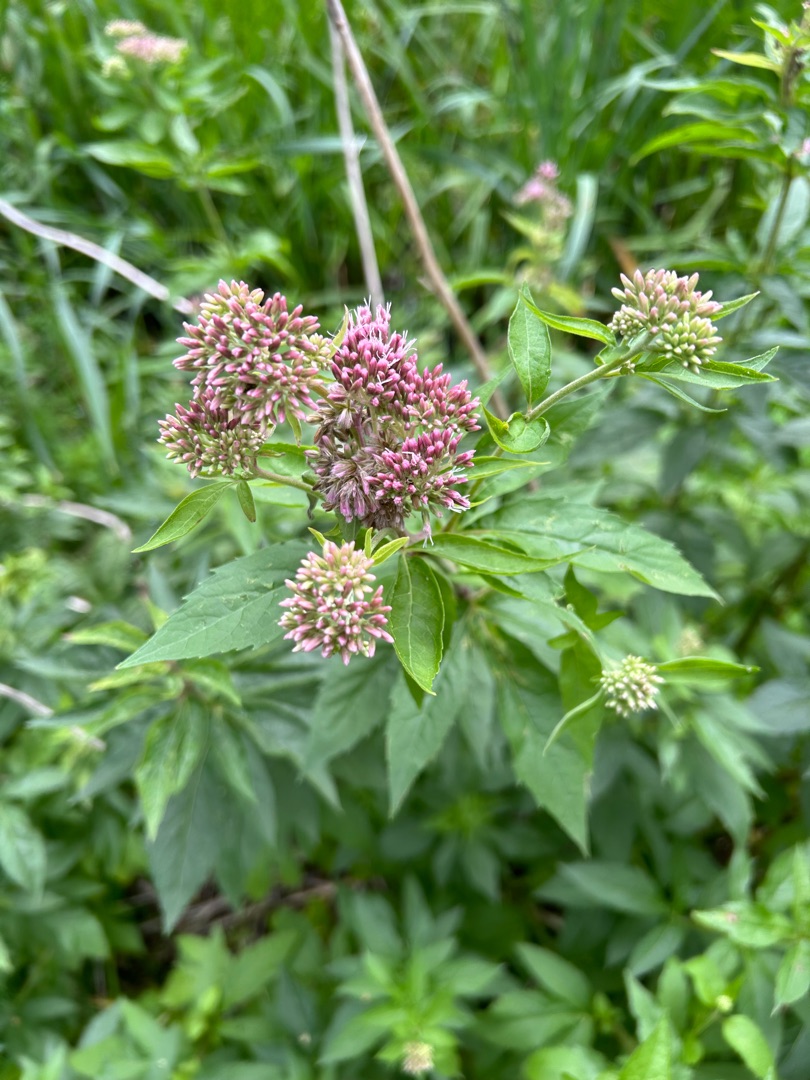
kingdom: Plantae
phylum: Tracheophyta
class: Magnoliopsida
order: Asterales
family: Asteraceae
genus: Eupatorium
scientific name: Eupatorium cannabinum
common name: Hjortetrøst
